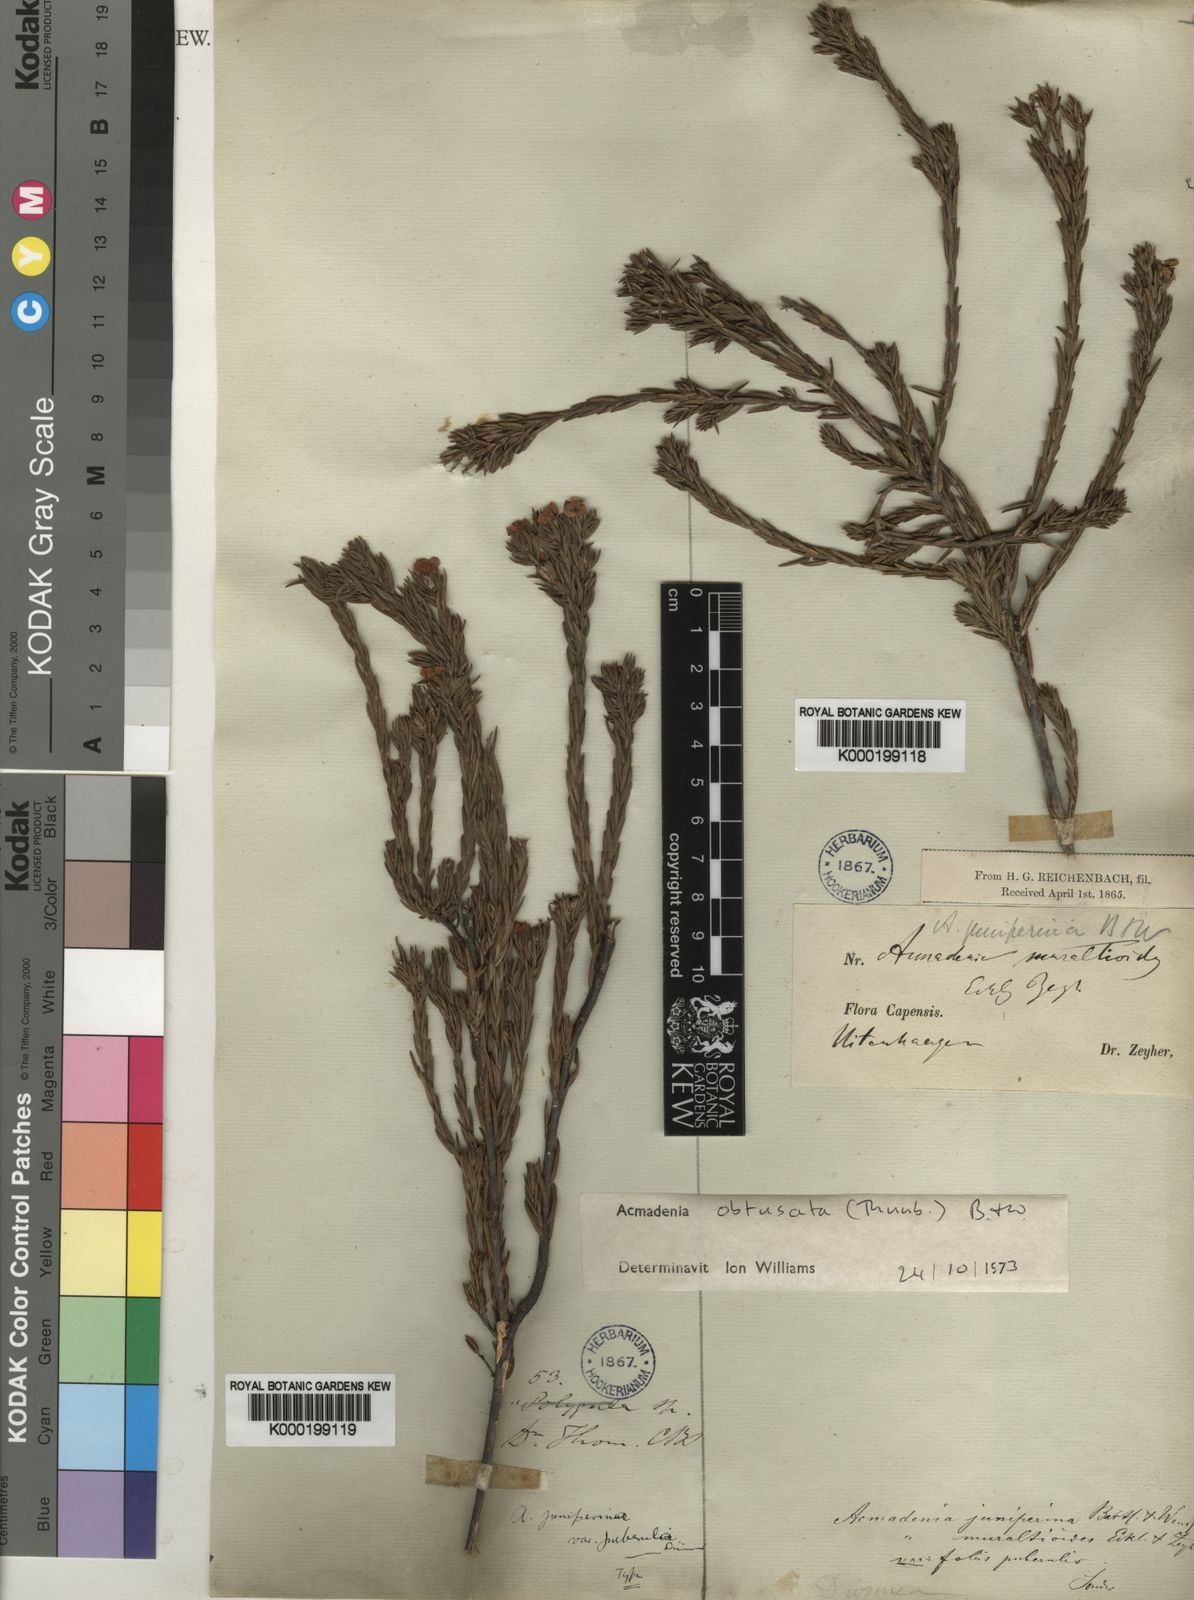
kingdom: Plantae
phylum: Tracheophyta
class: Magnoliopsida
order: Sapindales
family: Rutaceae
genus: Acmadenia
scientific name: Acmadenia obtusata
